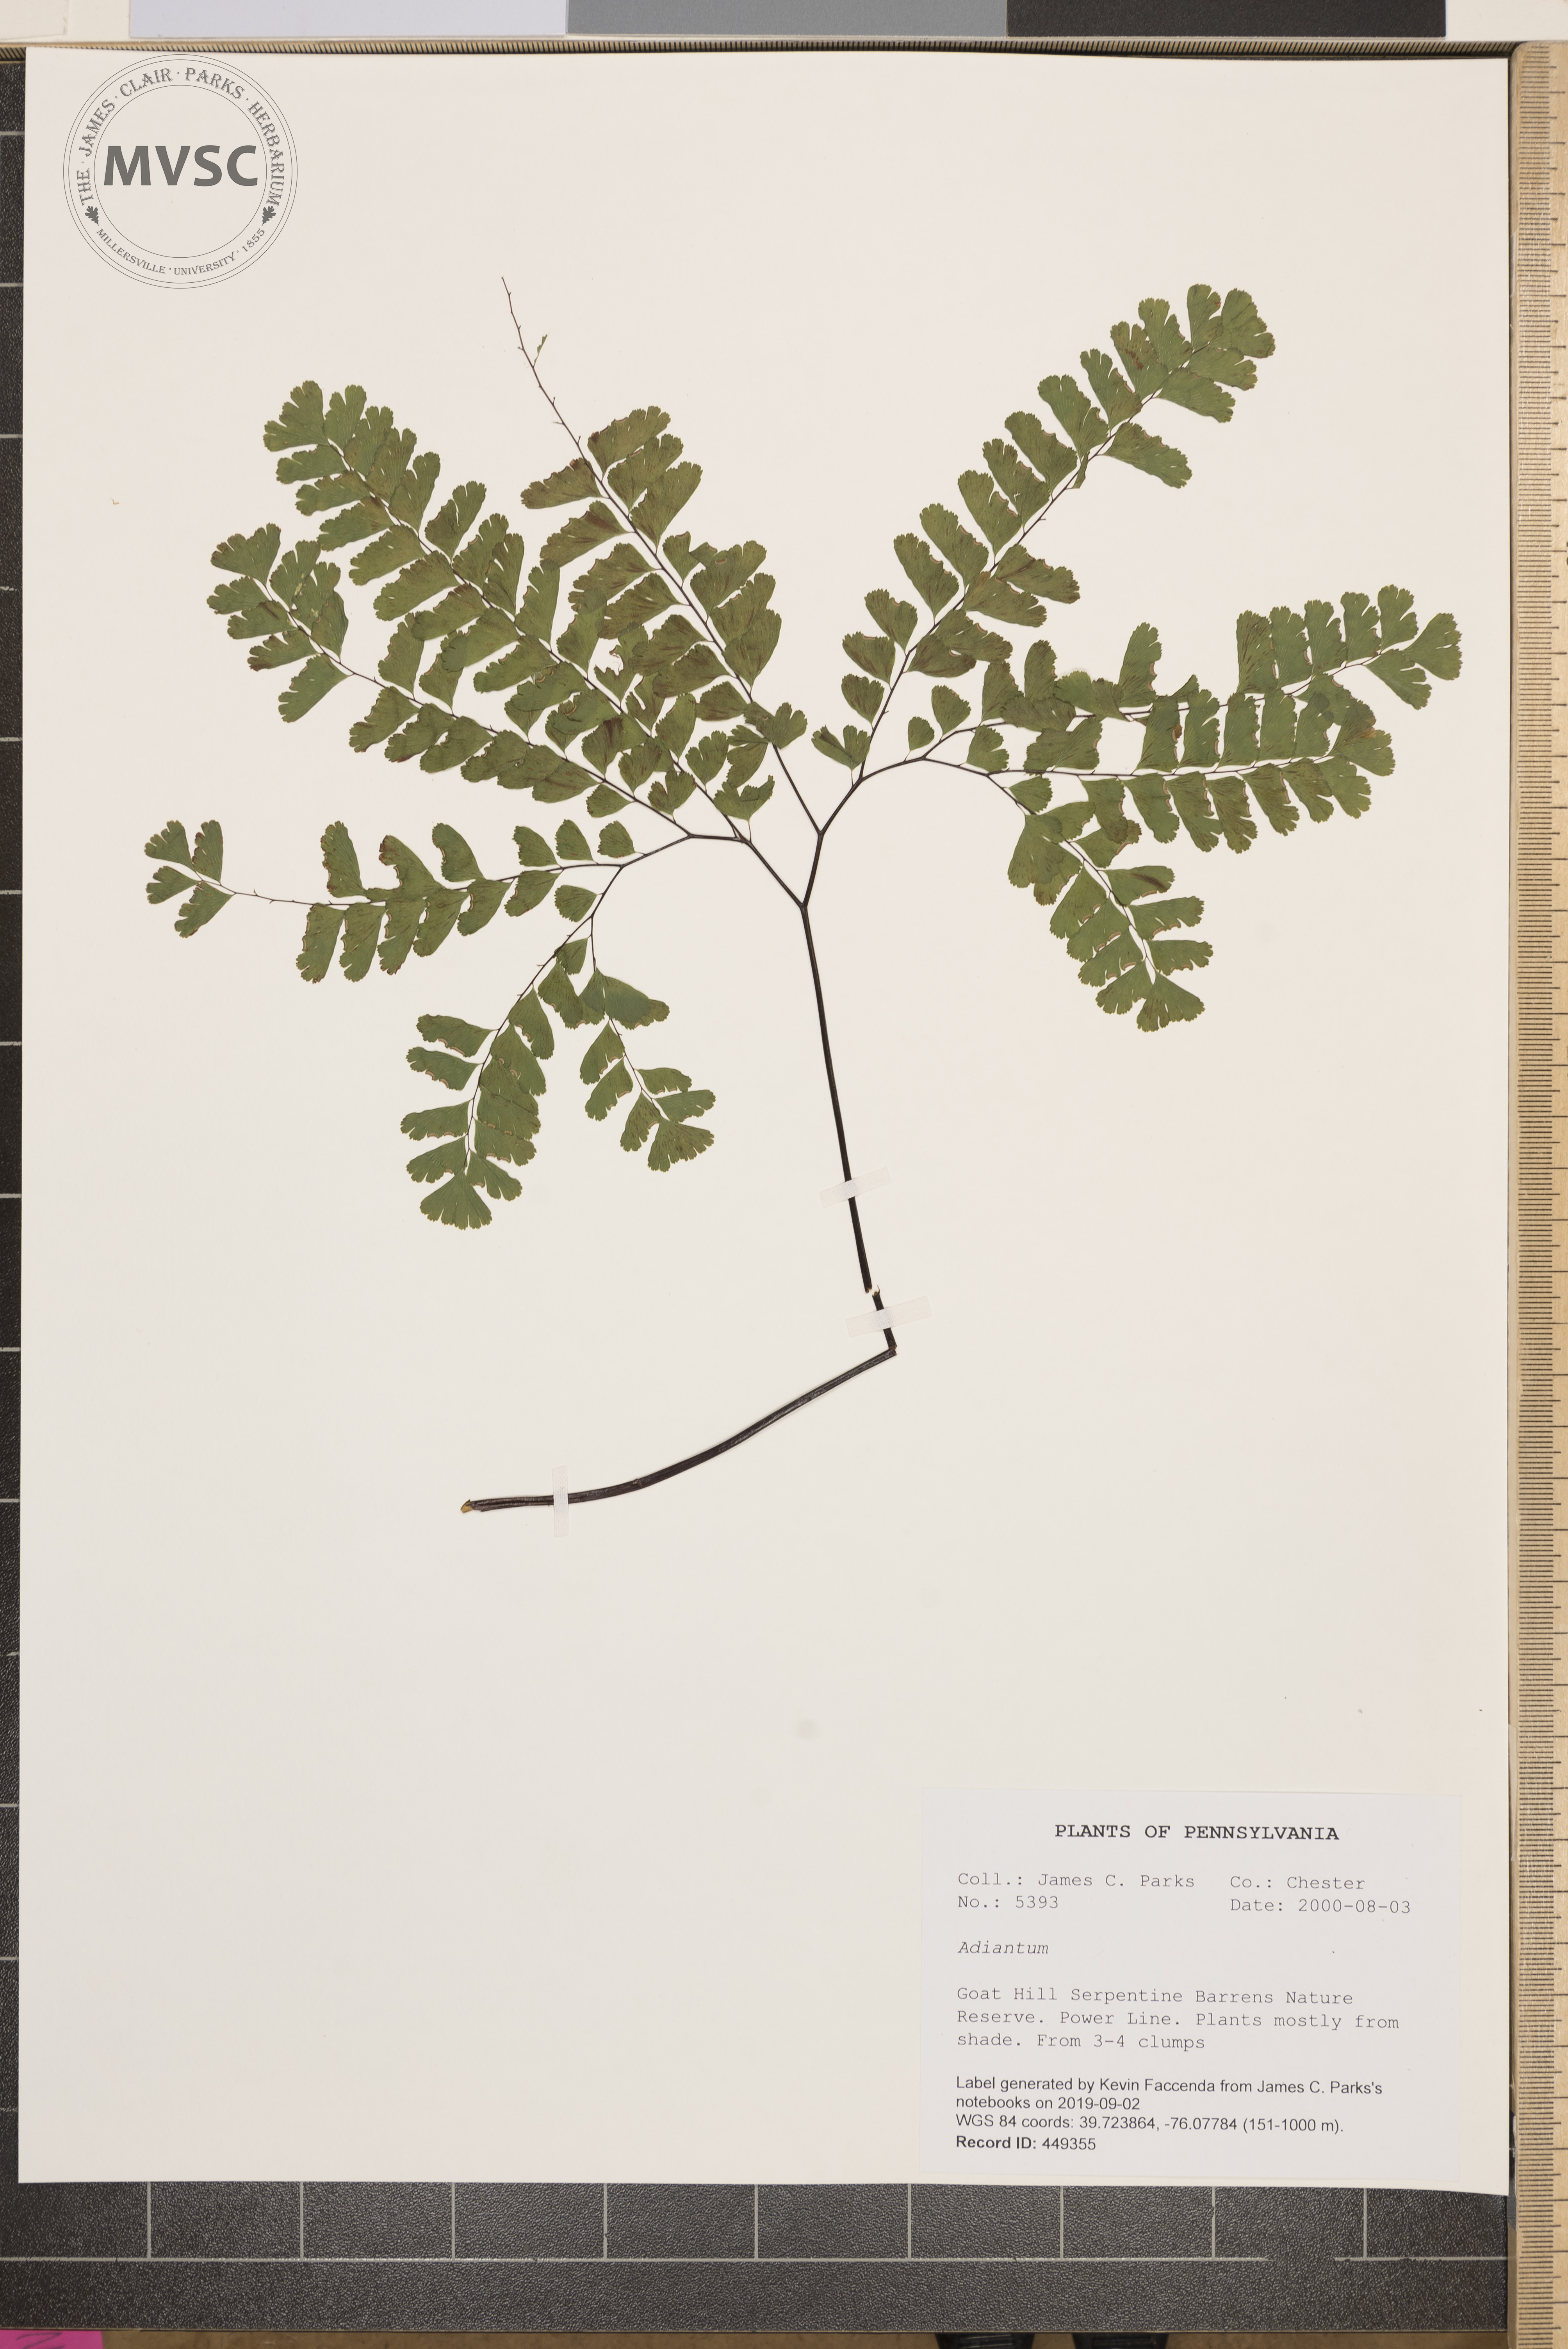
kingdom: Plantae
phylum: Tracheophyta
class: Polypodiopsida
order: Polypodiales
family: Pteridaceae
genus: Adiantum
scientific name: Adiantum
